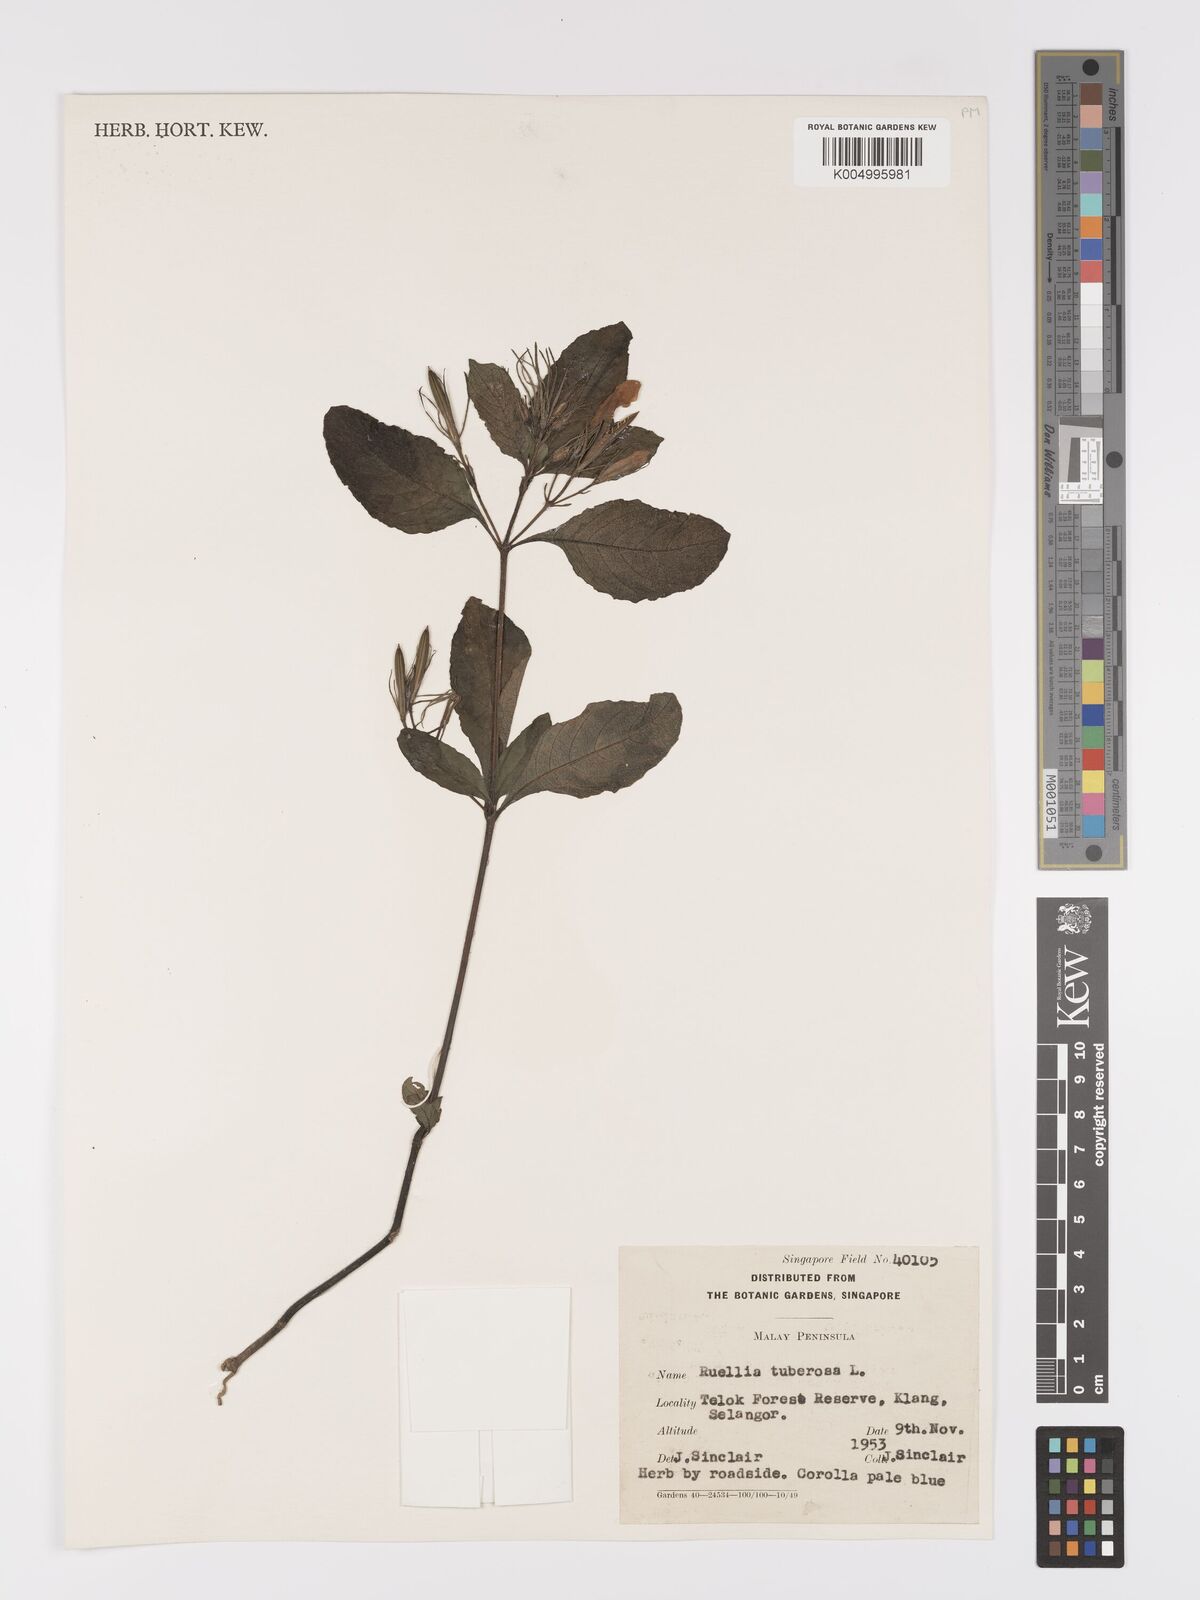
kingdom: Plantae
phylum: Tracheophyta
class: Magnoliopsida
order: Lamiales
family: Acanthaceae
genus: Ruellia
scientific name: Ruellia tuberosa
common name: Devil's bit
